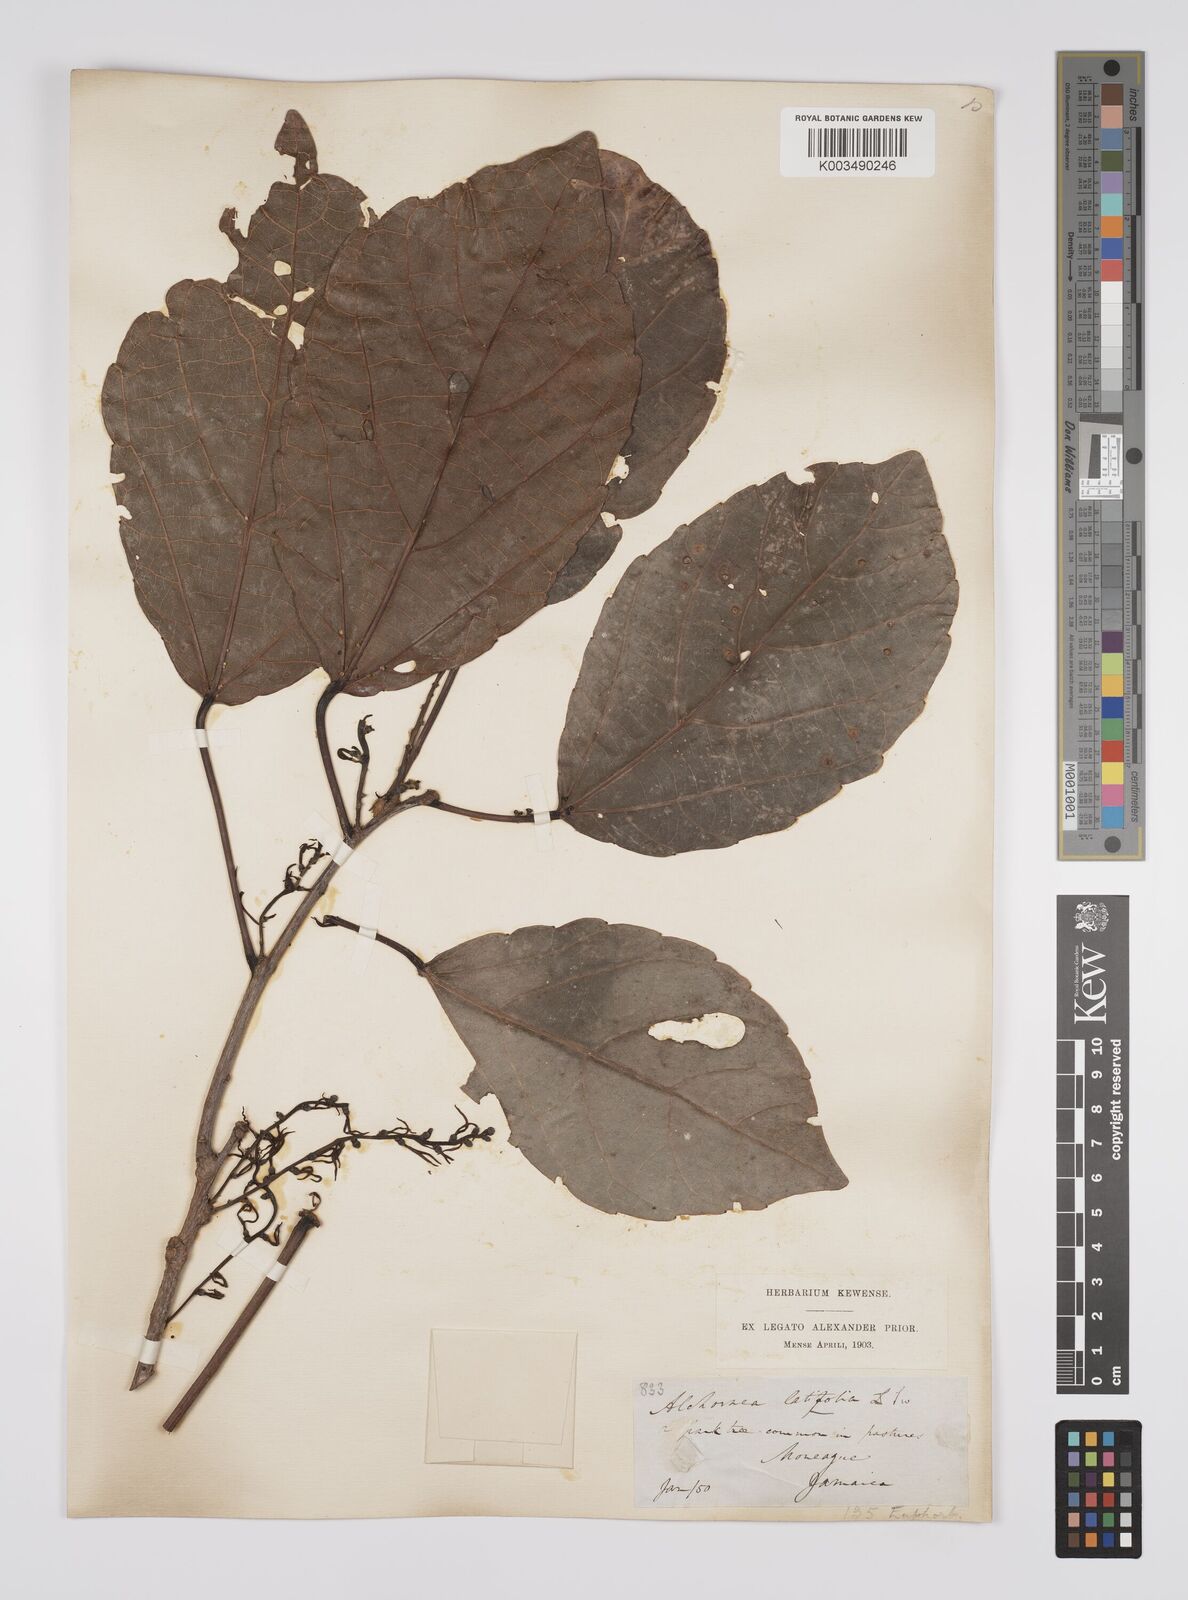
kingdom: Plantae
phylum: Tracheophyta
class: Magnoliopsida
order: Malpighiales
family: Euphorbiaceae
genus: Alchornea
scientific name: Alchornea latifolia
